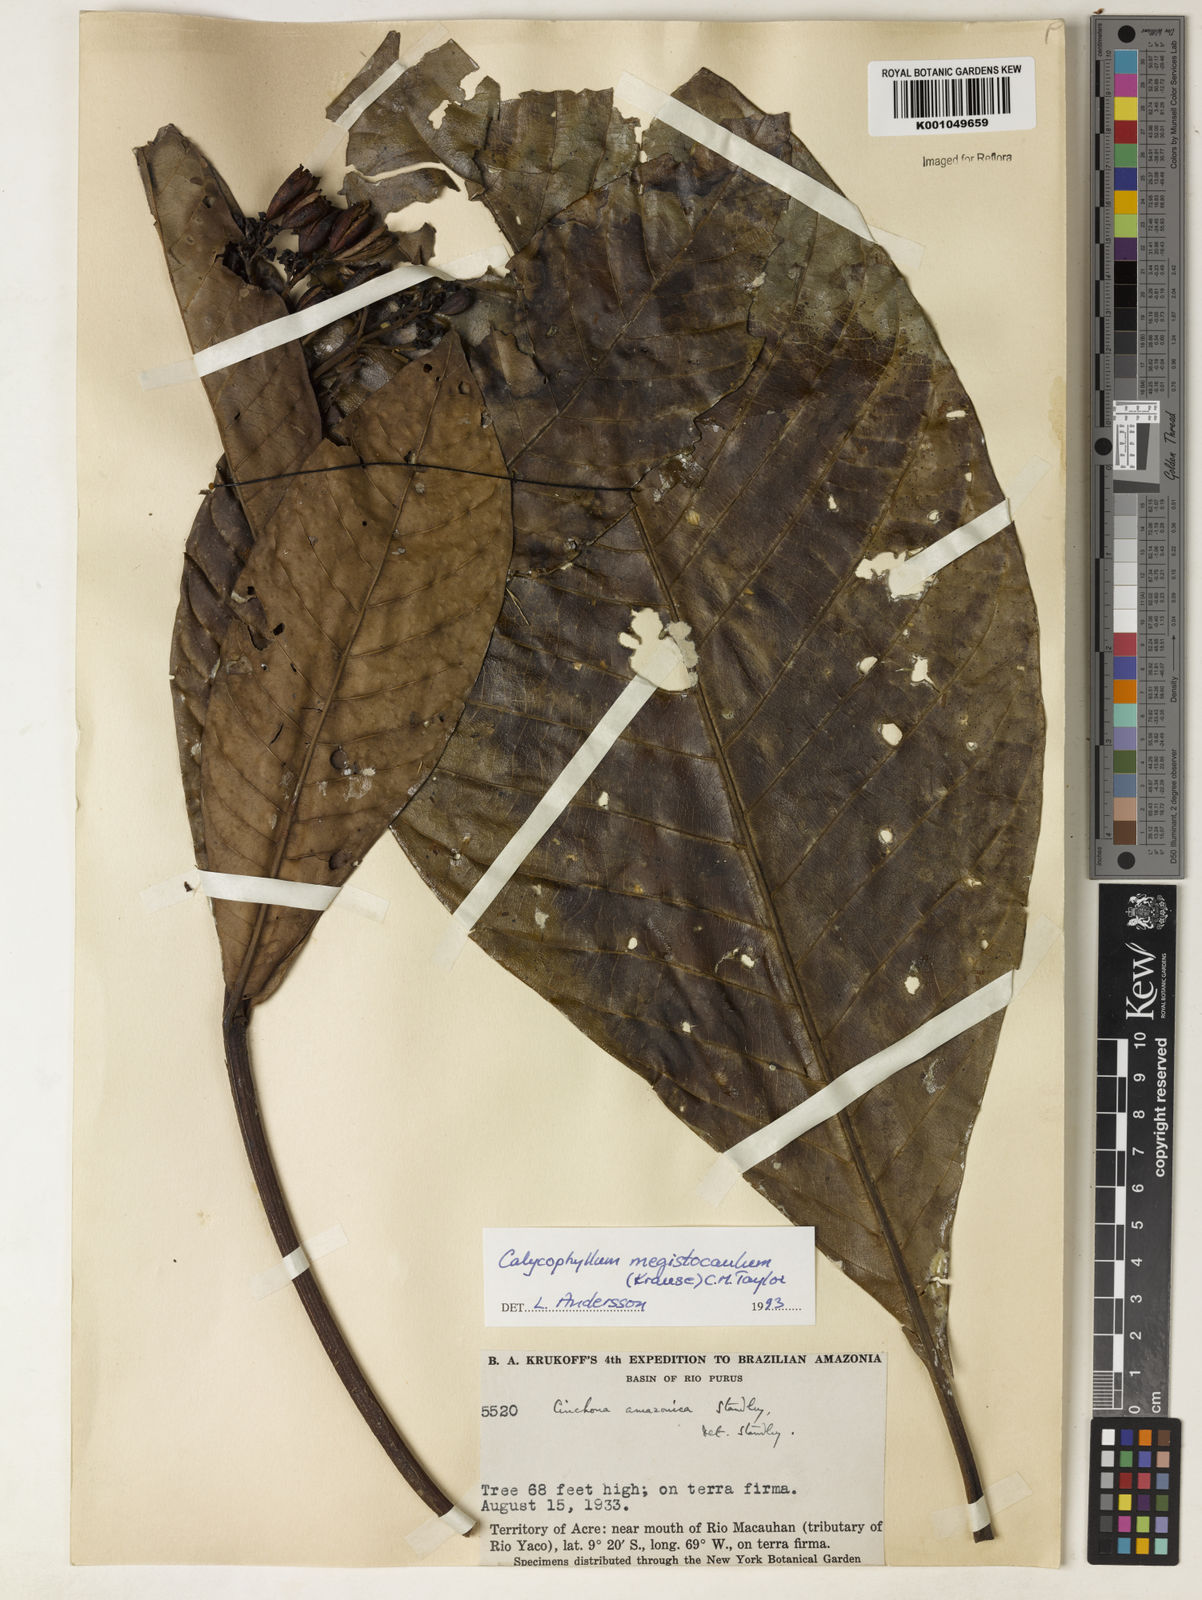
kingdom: Plantae
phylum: Tracheophyta
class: Magnoliopsida
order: Gentianales
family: Rubiaceae
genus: Calycophyllum
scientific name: Calycophyllum megistocaulum
